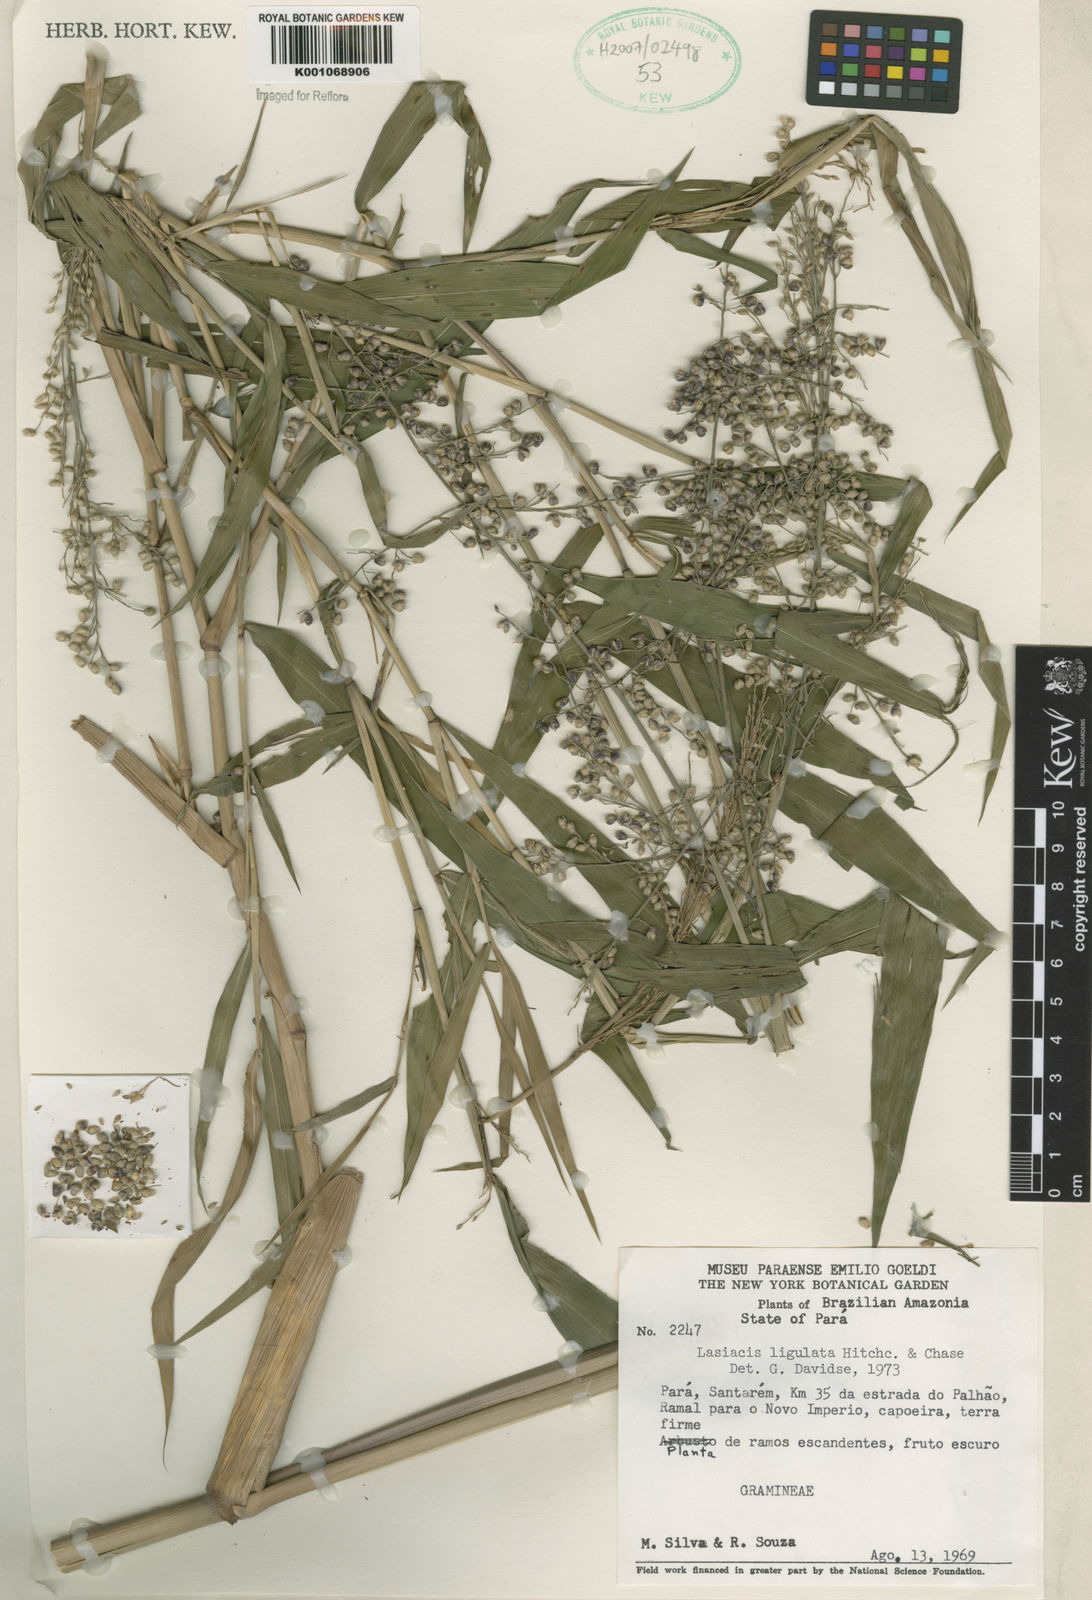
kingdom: Plantae
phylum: Tracheophyta
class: Liliopsida
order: Poales
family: Poaceae
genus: Lasiacis
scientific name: Lasiacis ligulata
